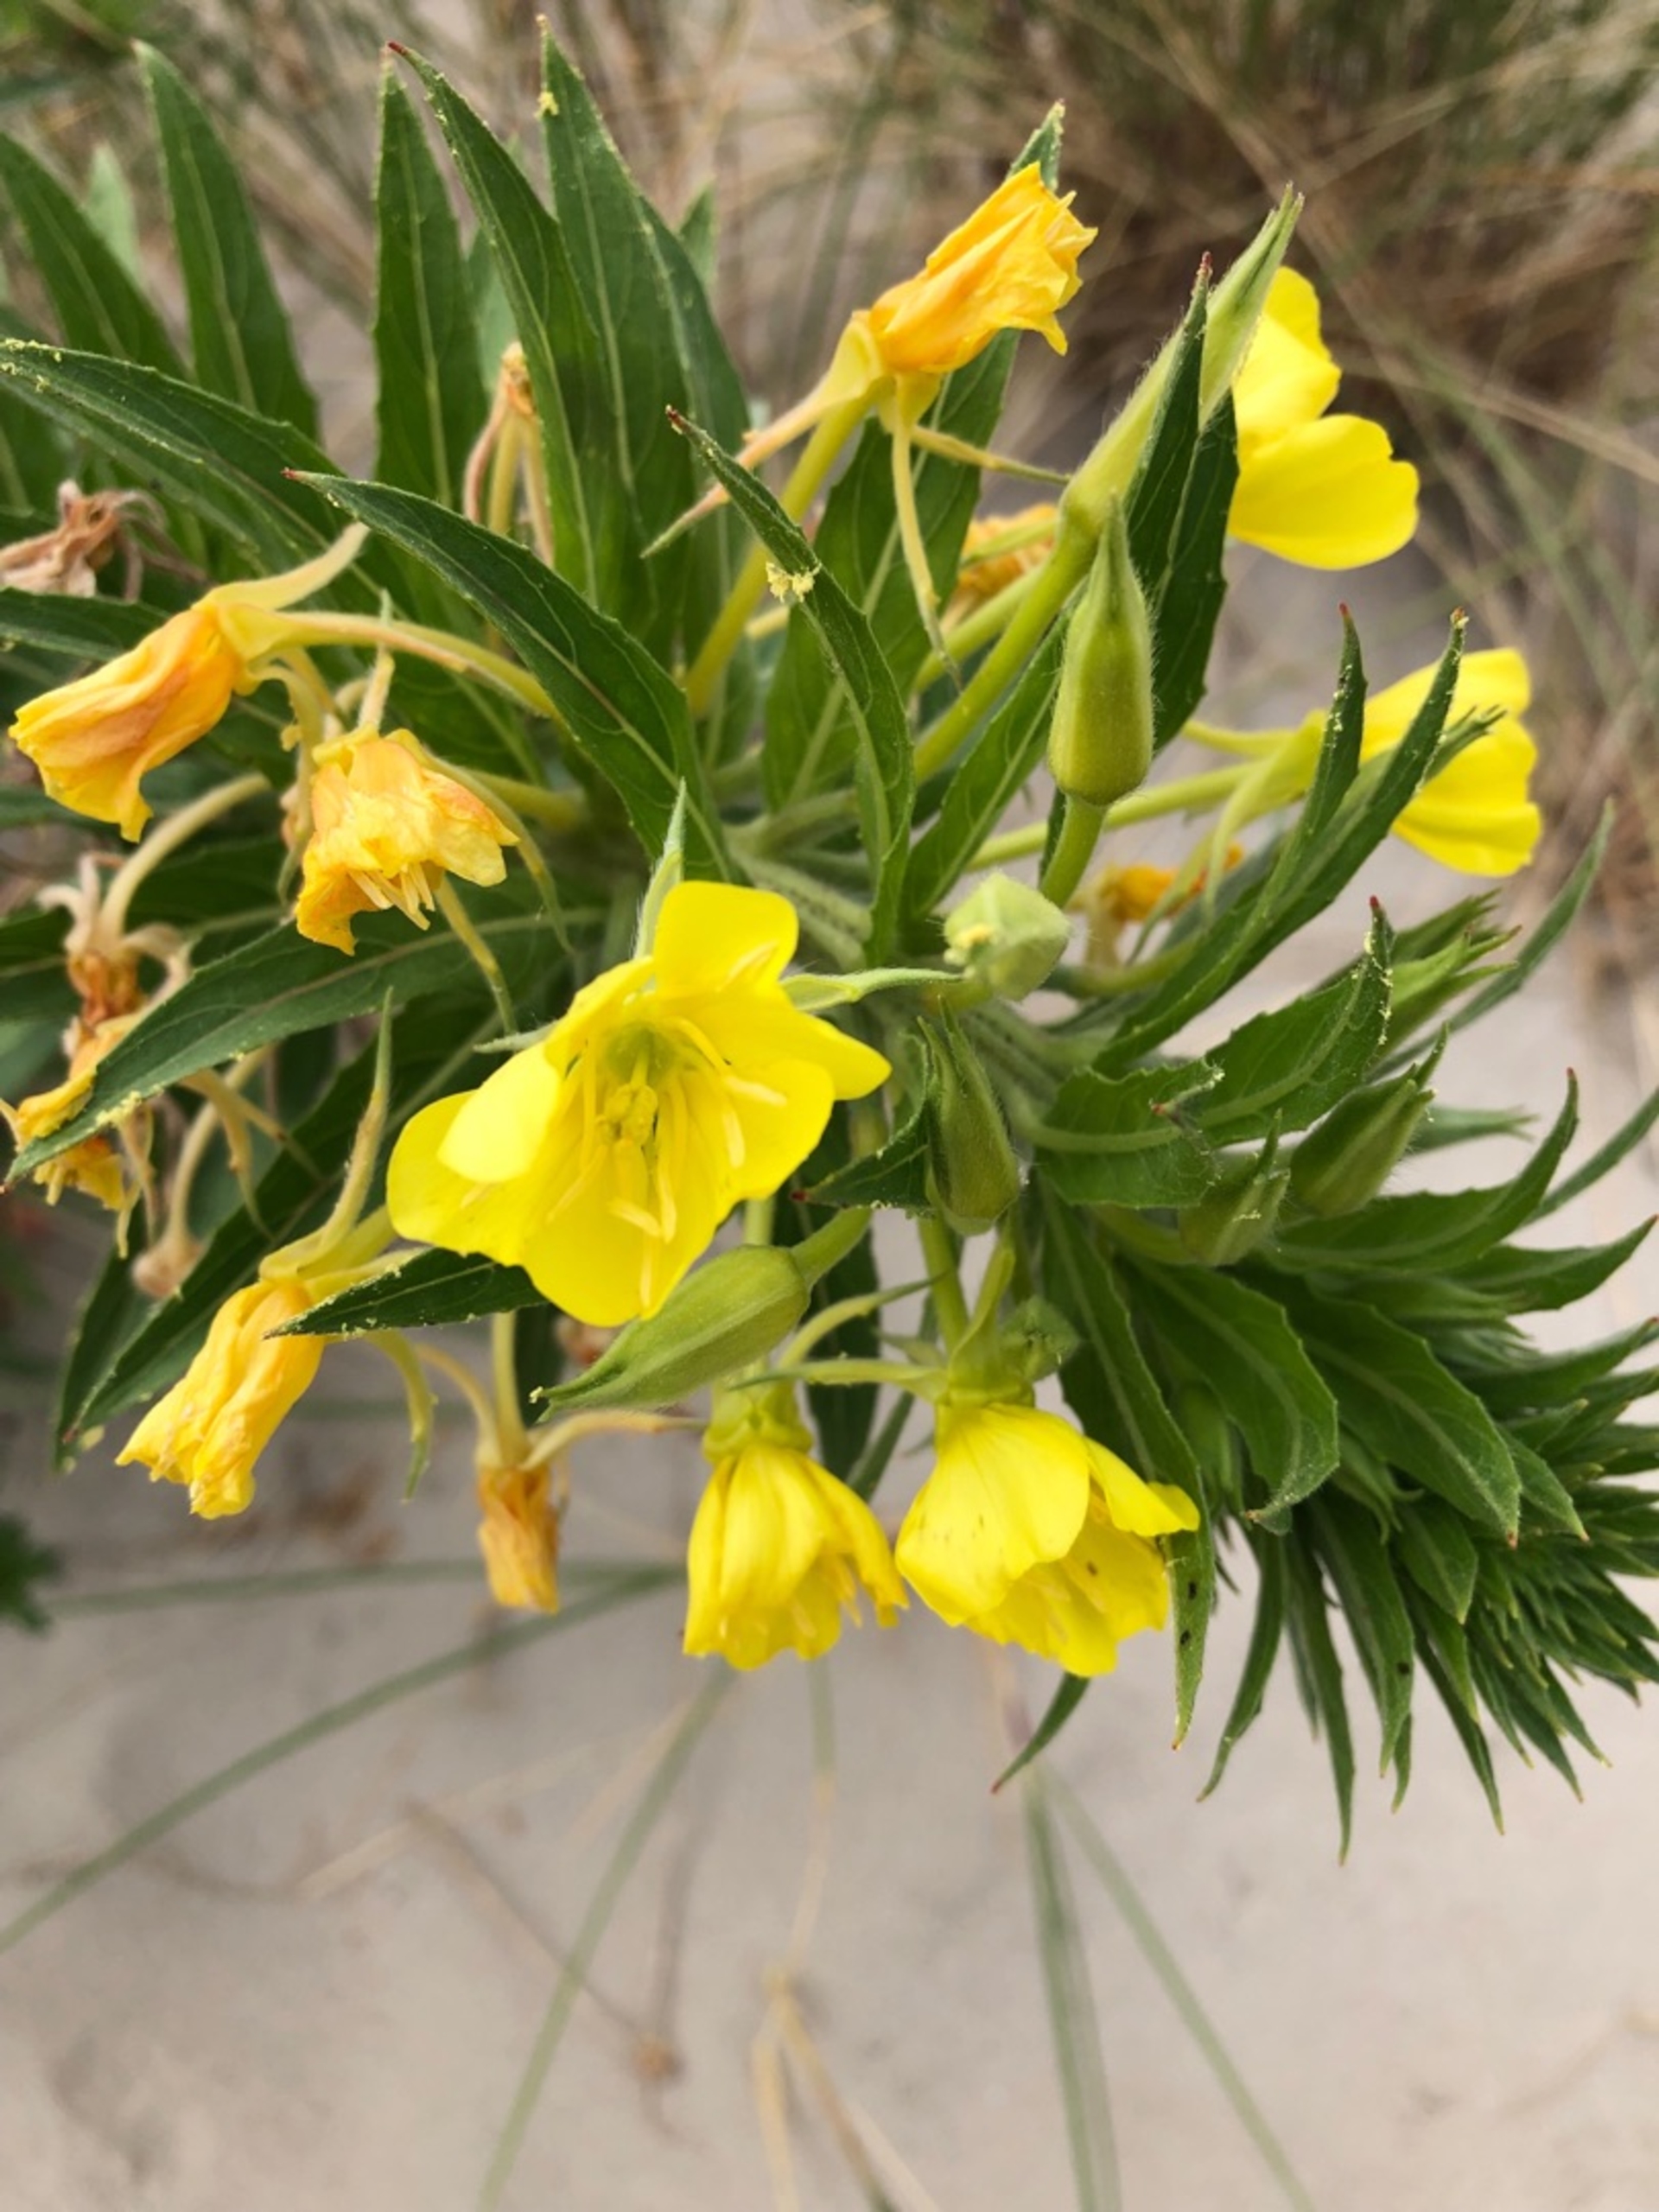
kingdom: Plantae
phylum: Tracheophyta
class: Magnoliopsida
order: Myrtales
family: Onagraceae
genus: Oenothera
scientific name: Oenothera ammophila
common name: Klit-natlys
